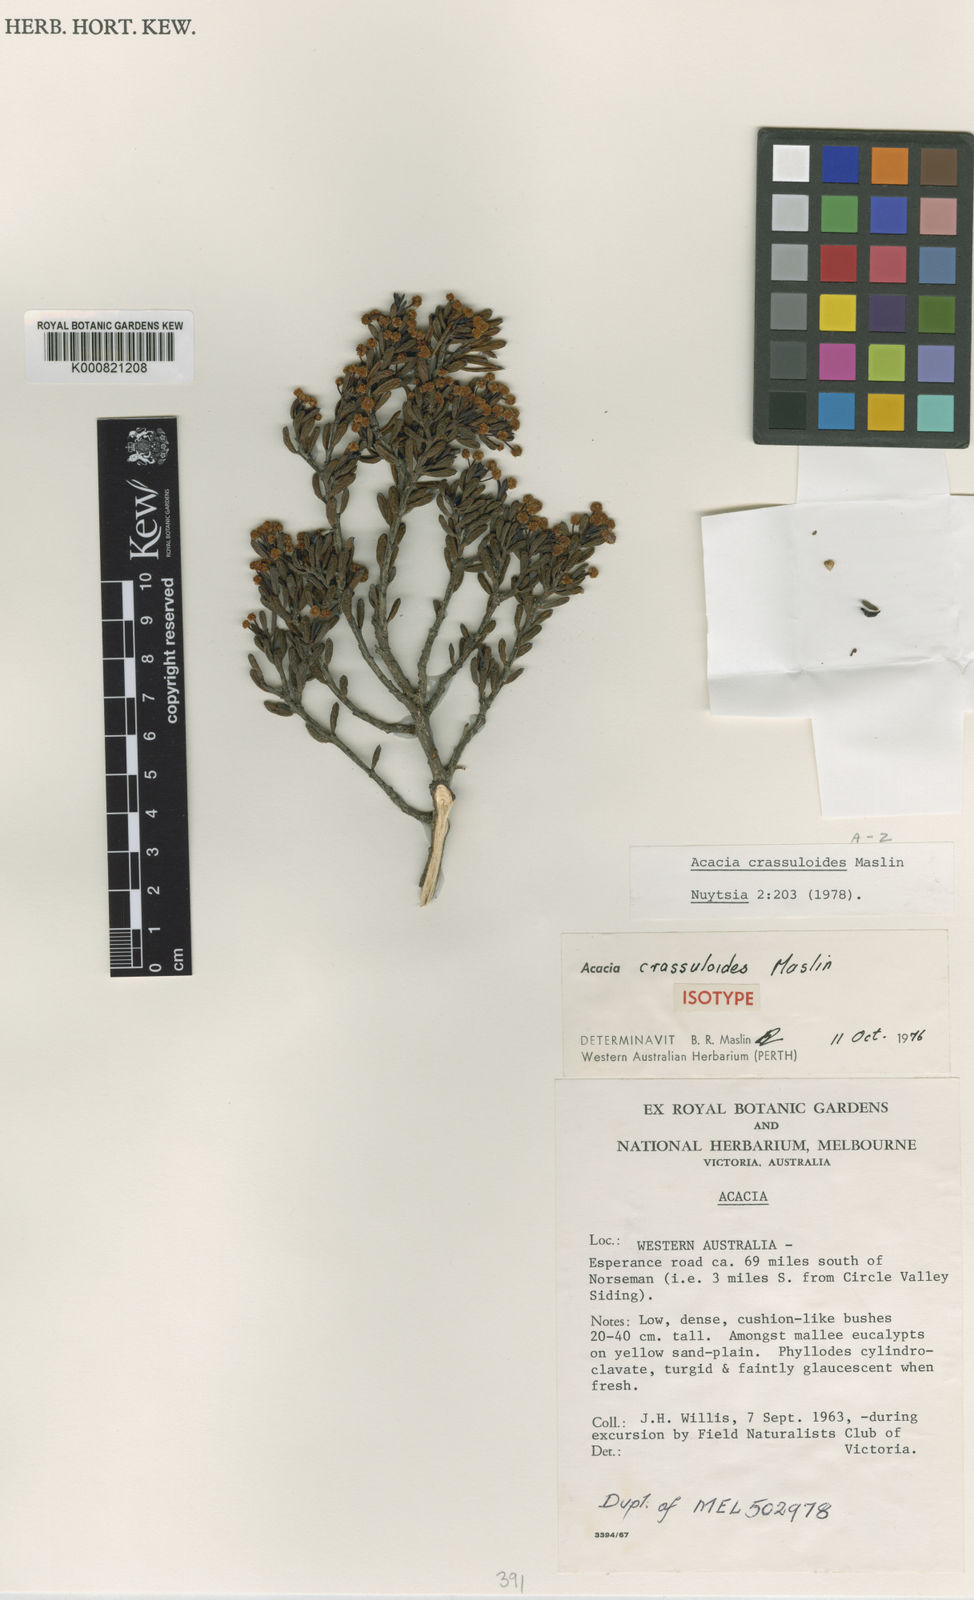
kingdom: Plantae
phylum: Tracheophyta
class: Magnoliopsida
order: Fabales
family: Fabaceae
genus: Acacia
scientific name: Acacia crassuloides
